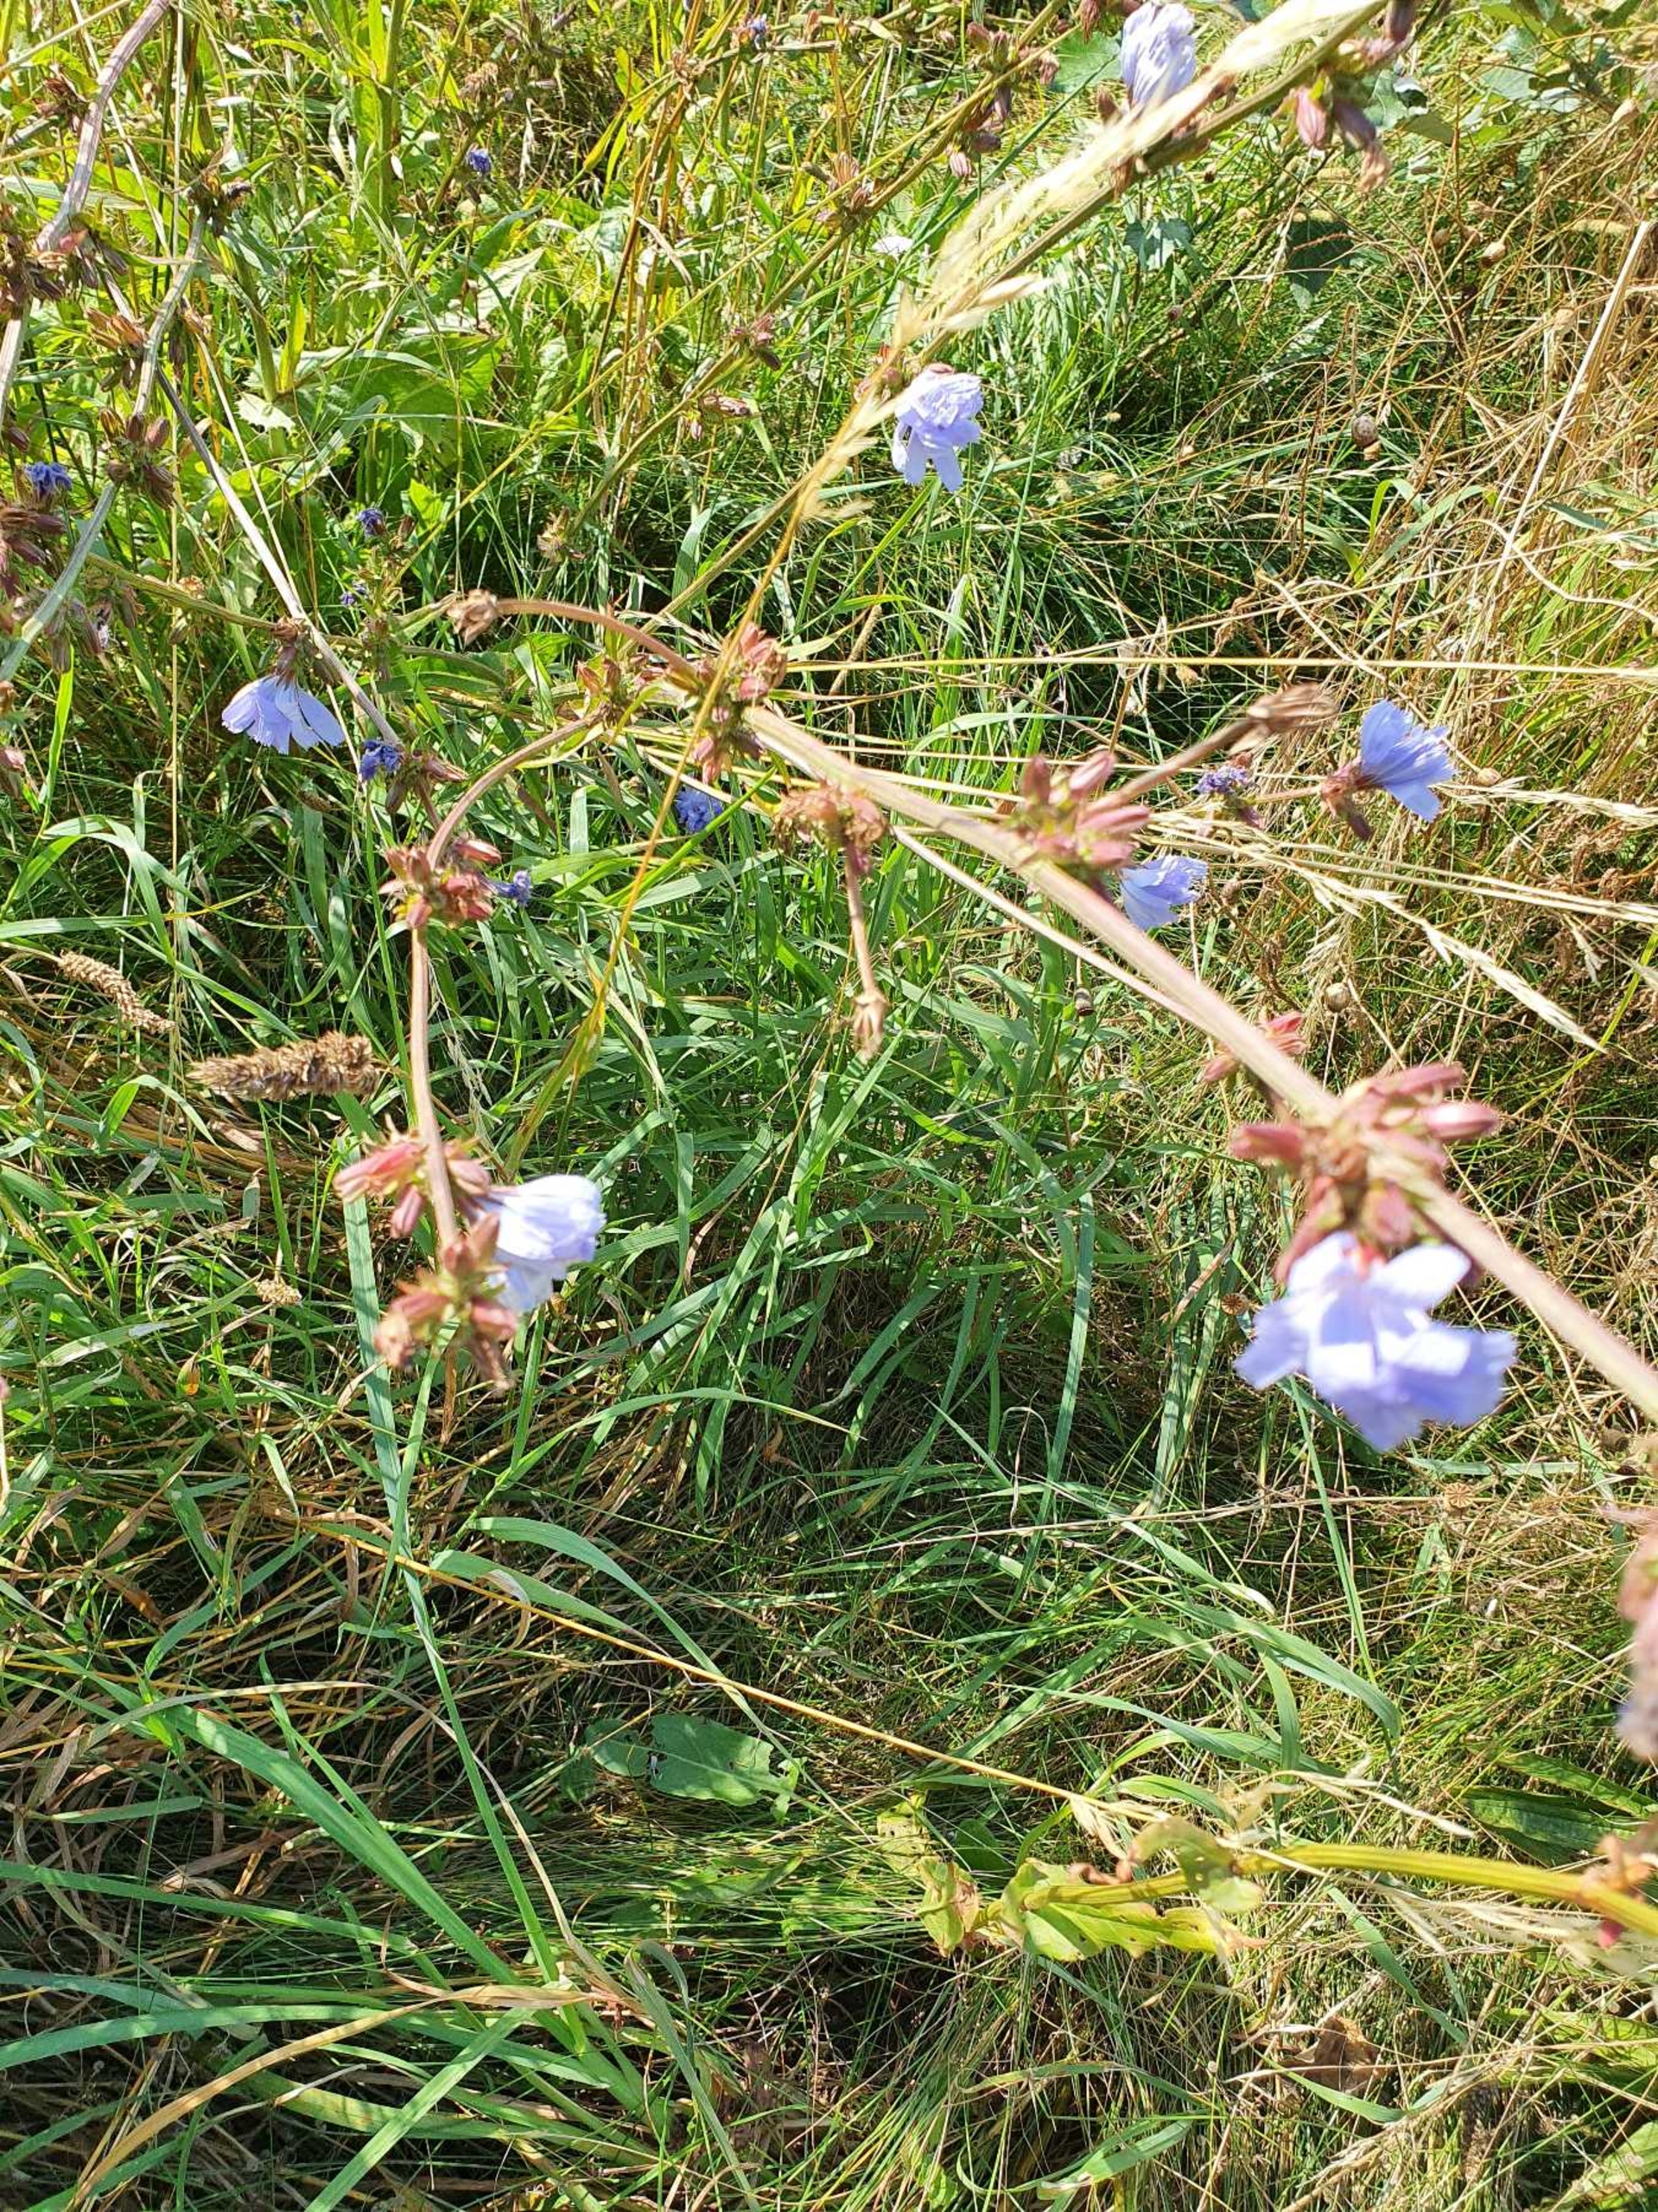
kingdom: Plantae
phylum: Tracheophyta
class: Magnoliopsida
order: Asterales
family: Asteraceae
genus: Cichorium
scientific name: Cichorium intybus
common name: Cikorie
